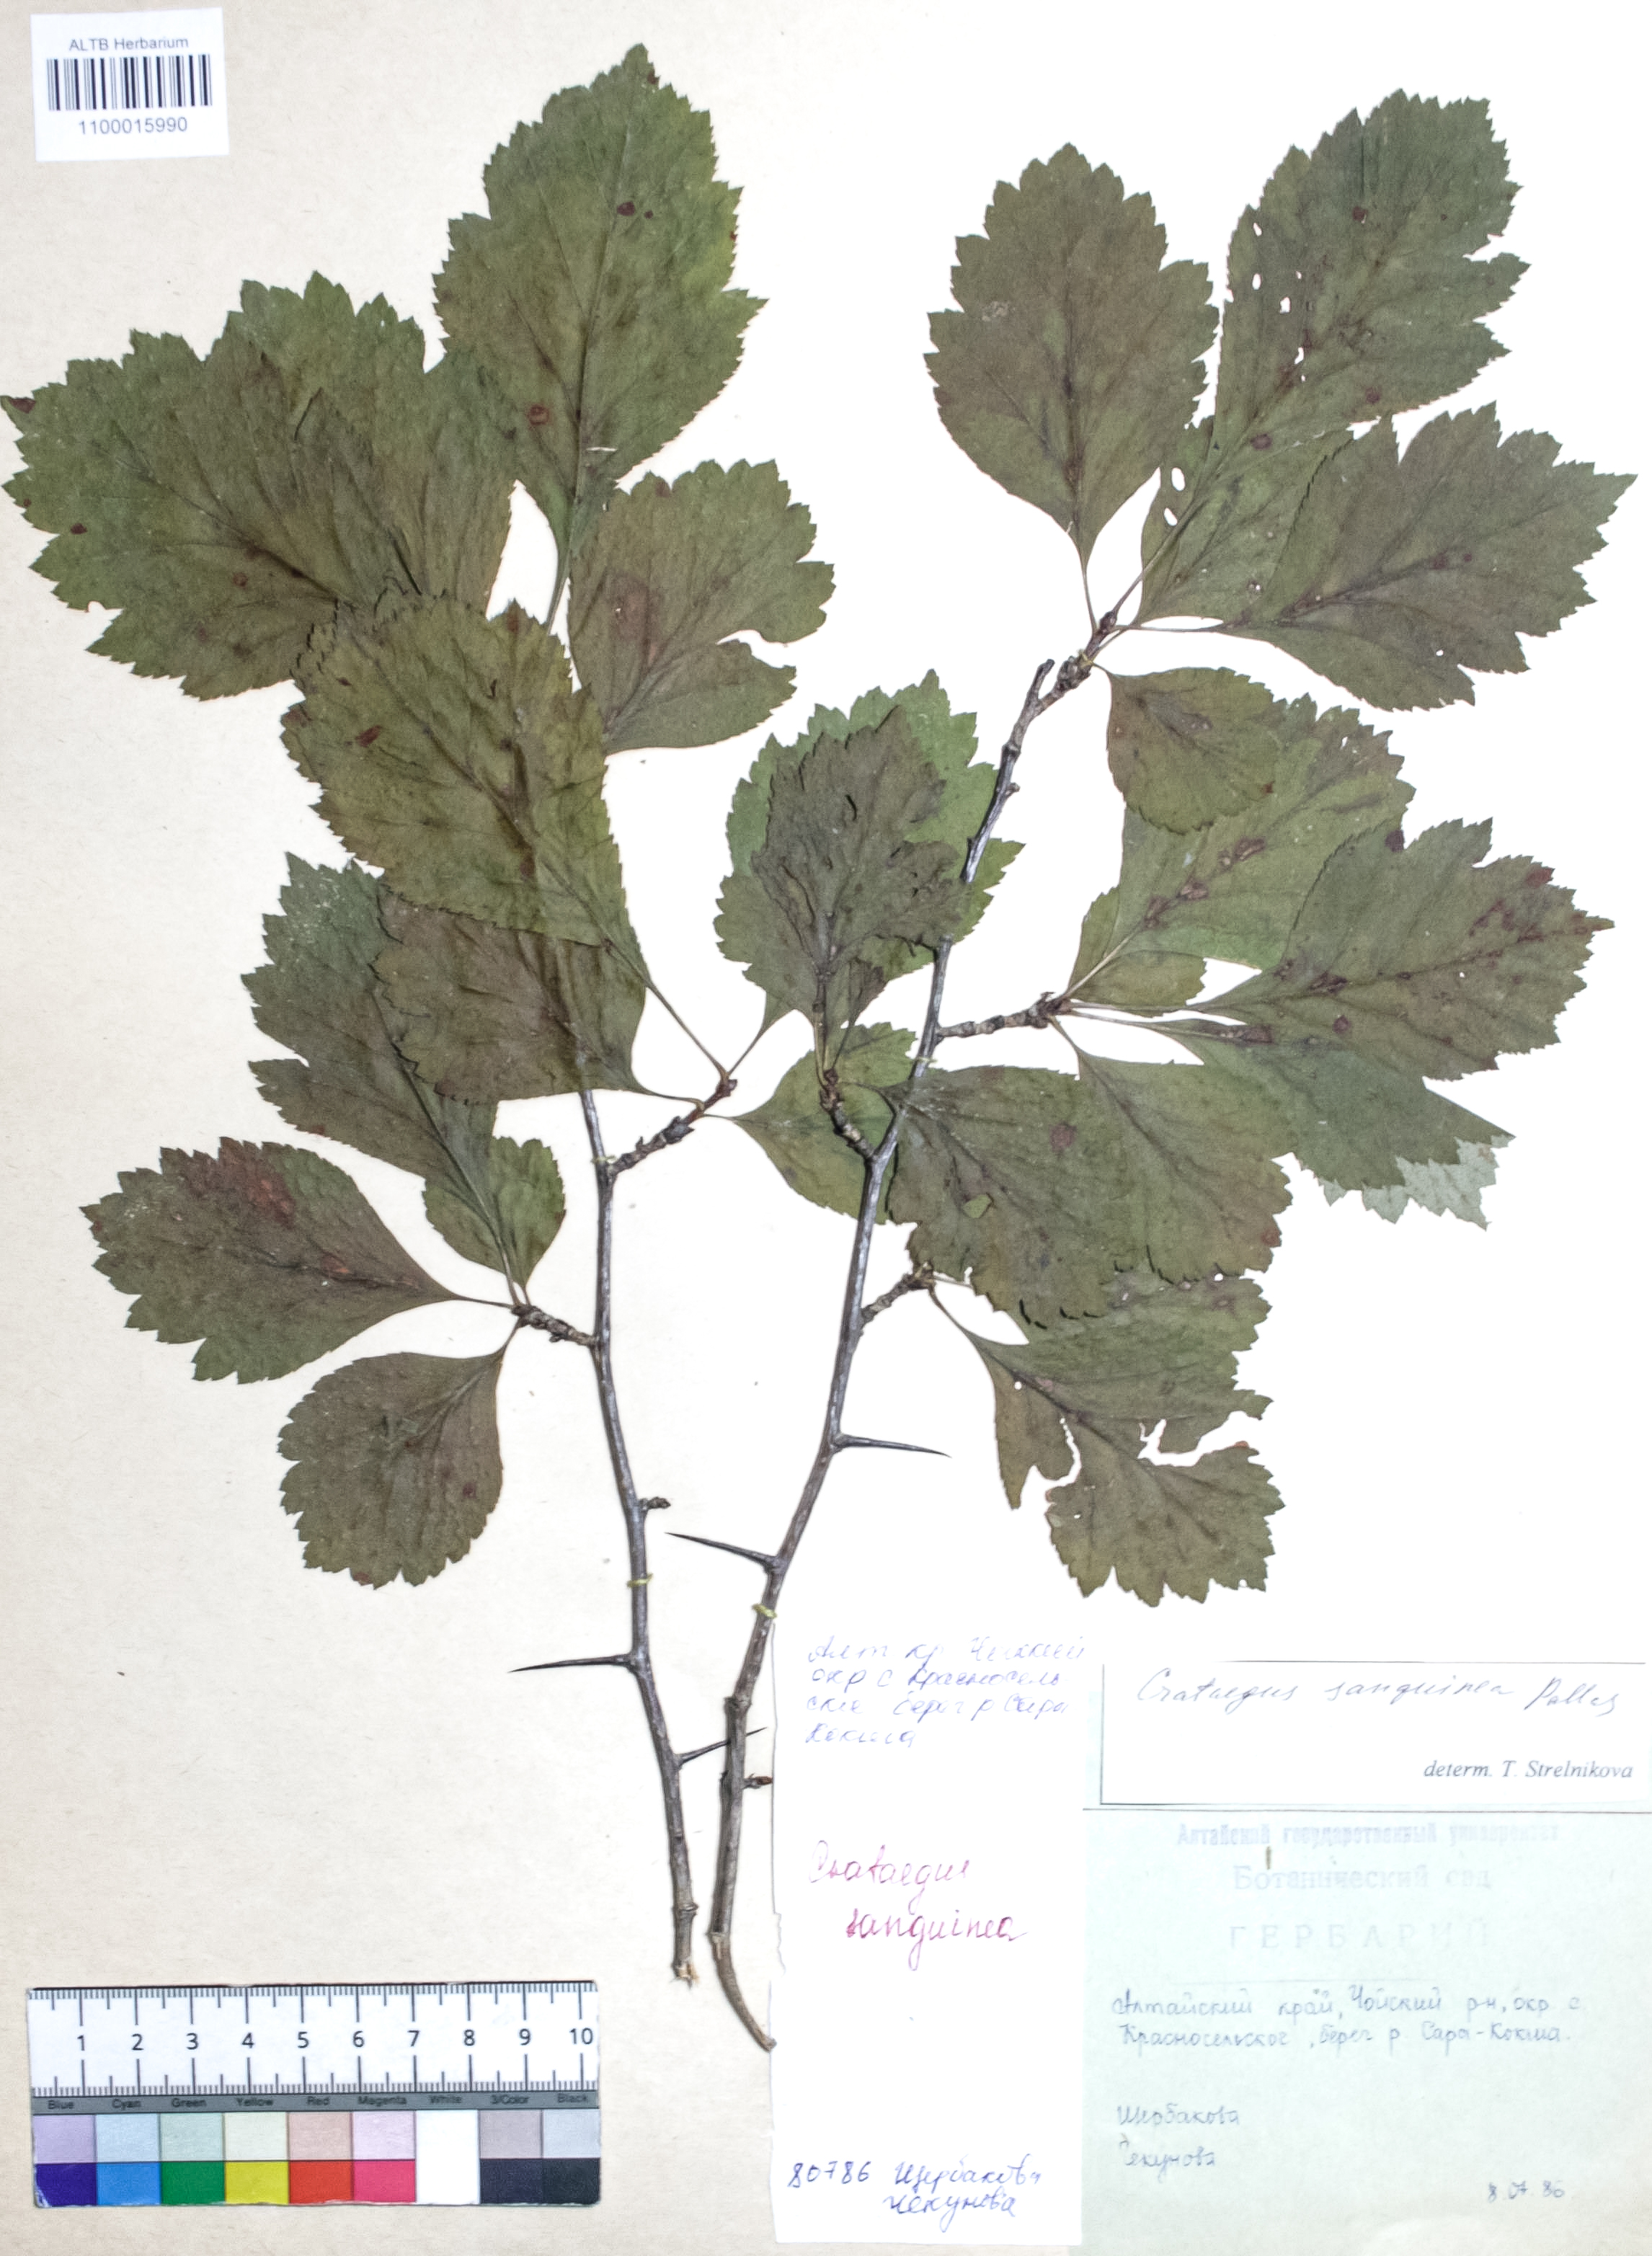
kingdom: Plantae
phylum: Tracheophyta
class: Magnoliopsida
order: Rosales
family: Rosaceae
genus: Crataegus
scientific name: Crataegus sanguinea
